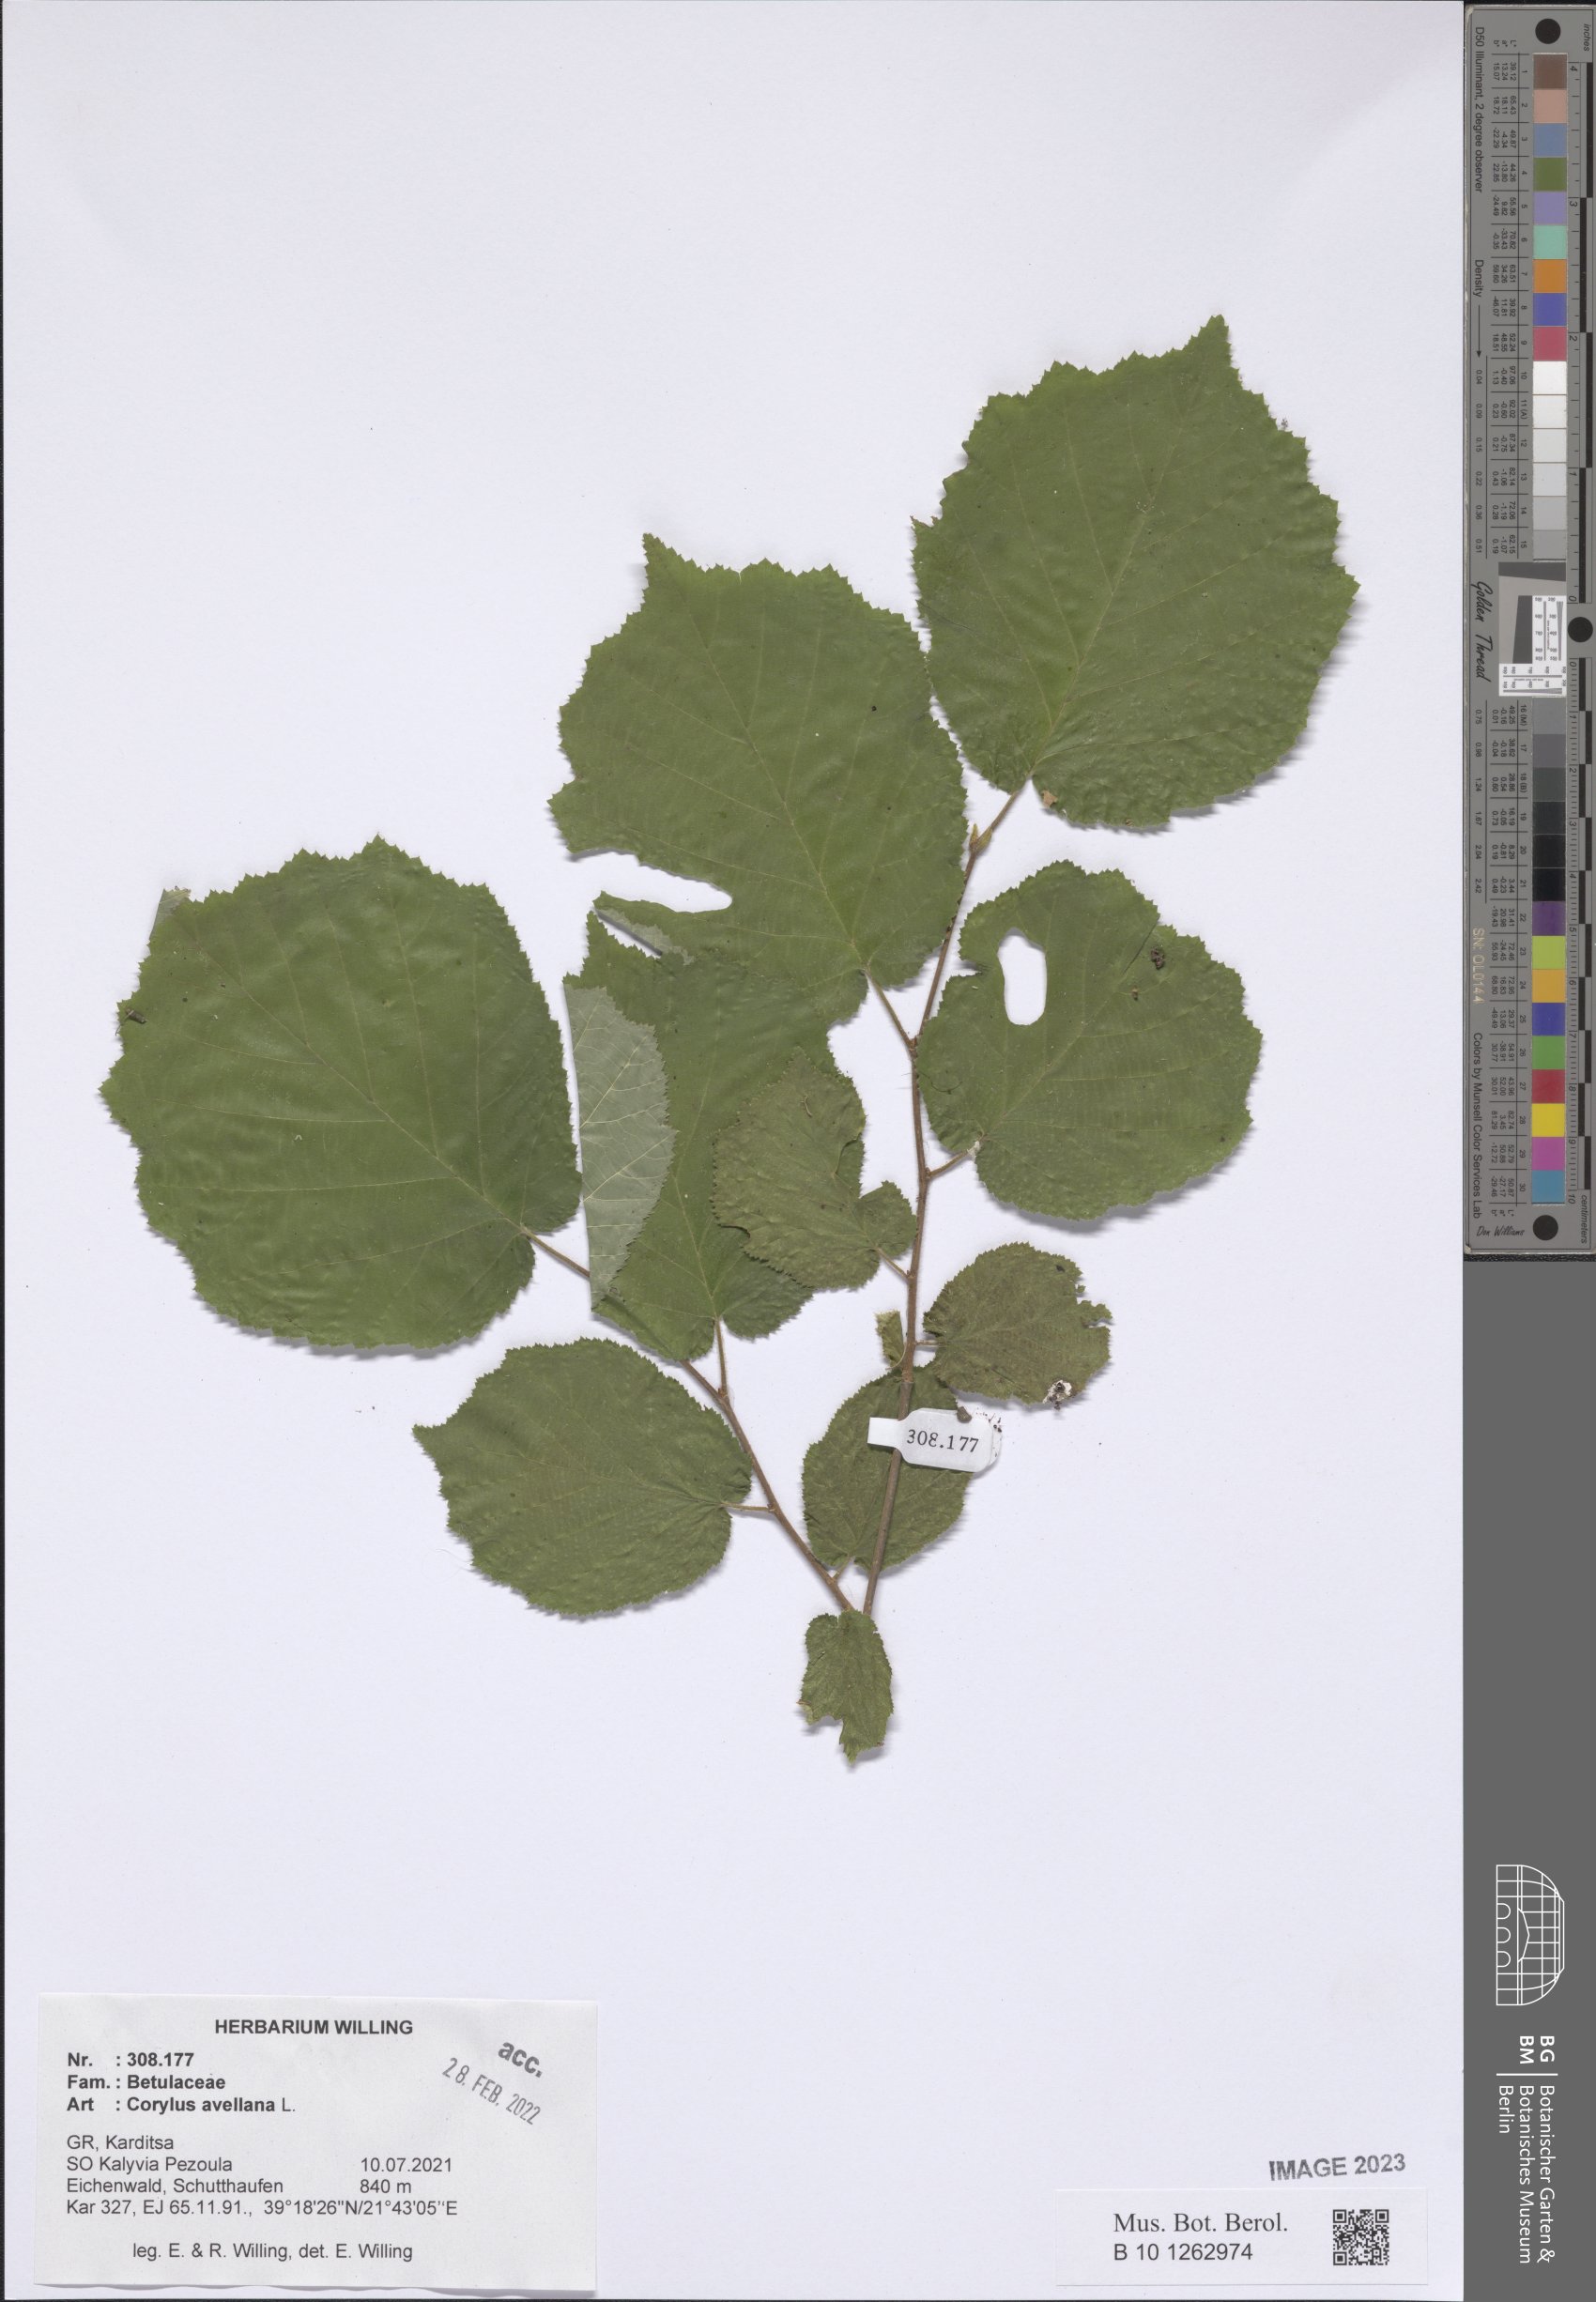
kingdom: Plantae
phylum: Tracheophyta
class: Magnoliopsida
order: Fagales
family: Betulaceae
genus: Corylus
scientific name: Corylus avellana
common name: European hazel
